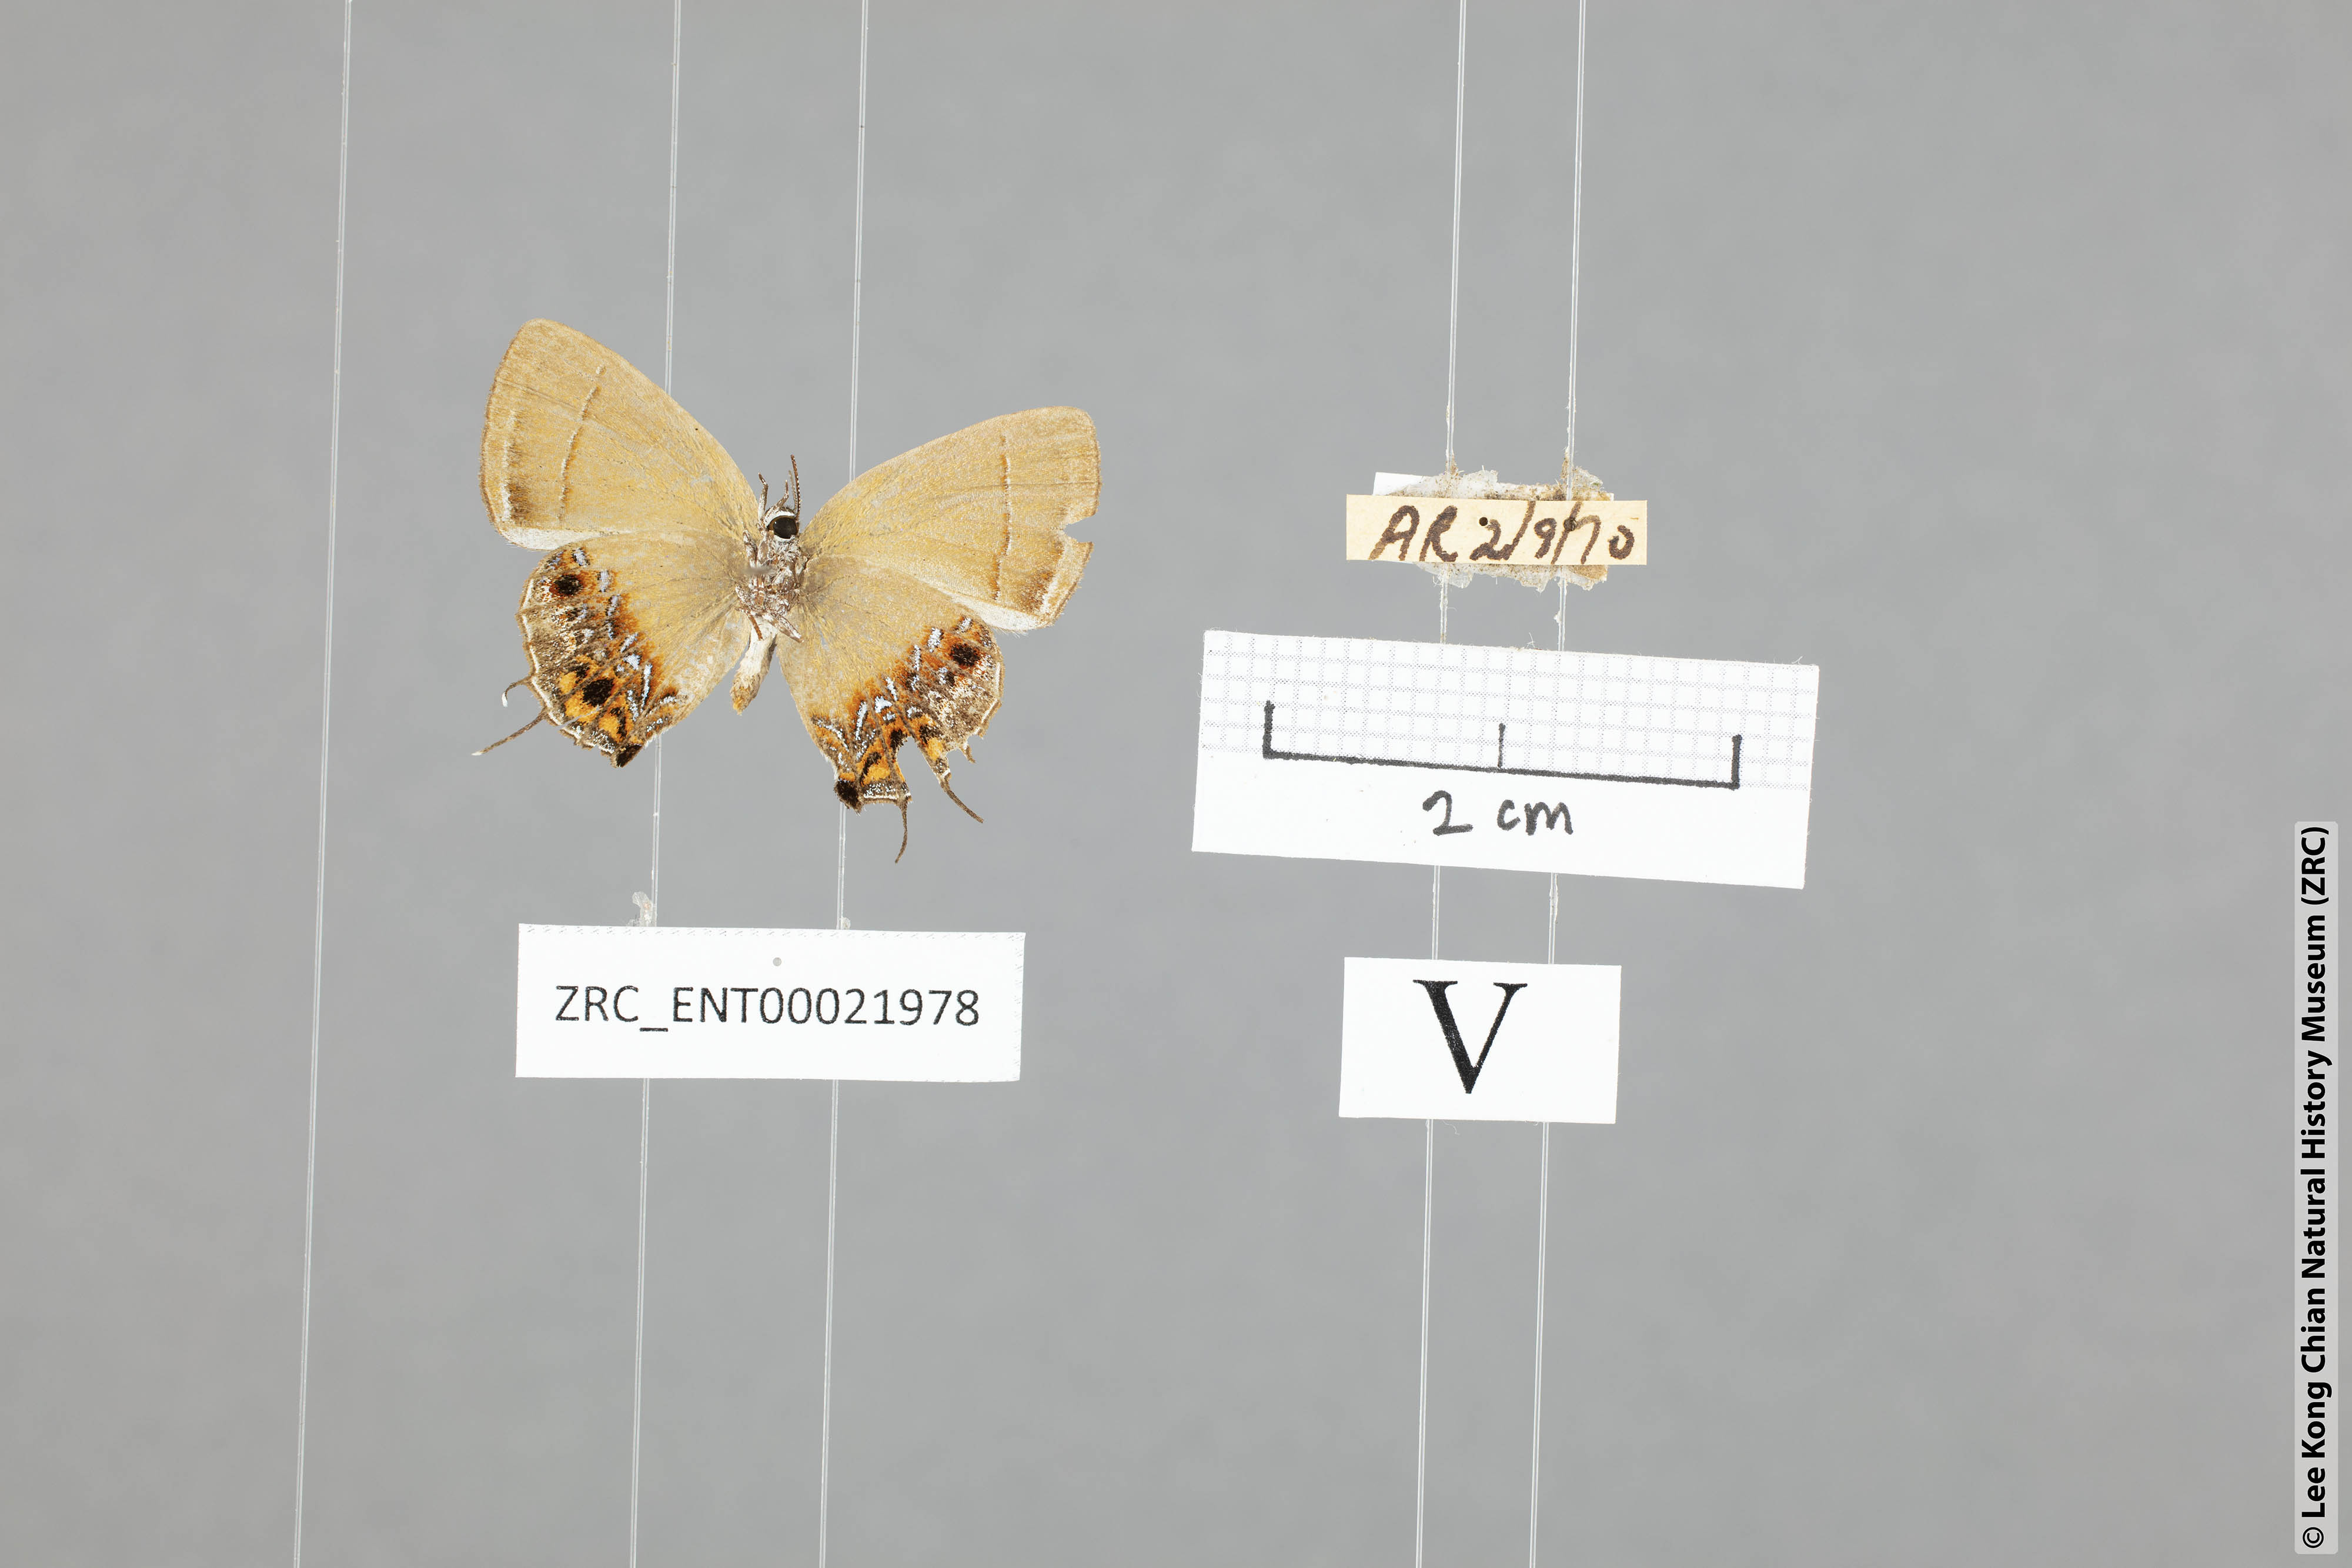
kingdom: Animalia
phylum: Arthropoda
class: Insecta
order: Lepidoptera
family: Lycaenidae
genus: Semanga
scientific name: Semanga superba
